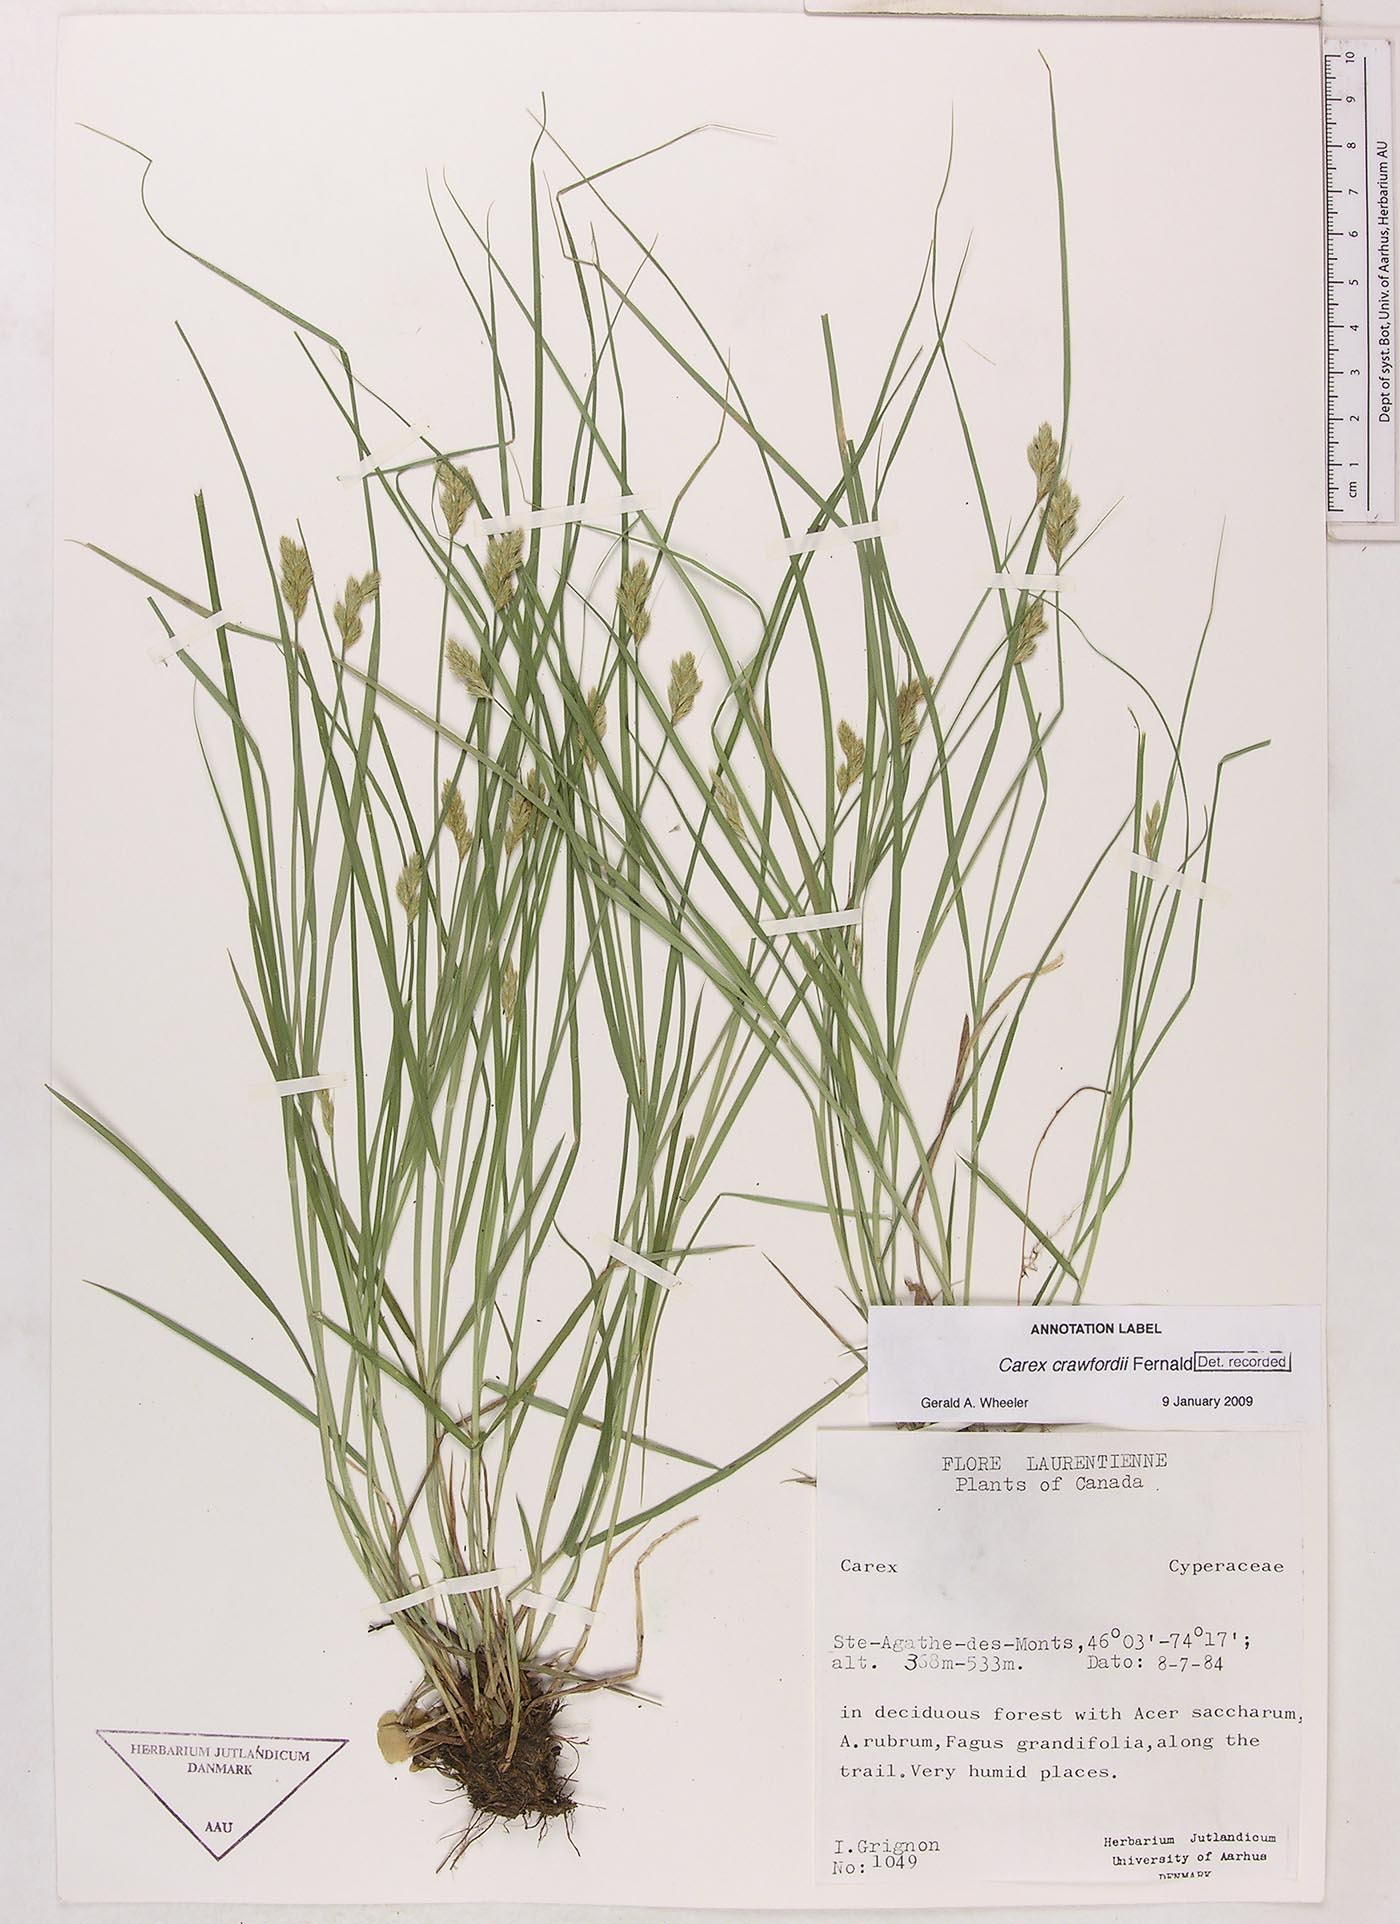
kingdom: Plantae
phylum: Tracheophyta
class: Liliopsida
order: Poales
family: Cyperaceae
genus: Carex
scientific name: Carex crawfordii
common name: Crawford's sedge
